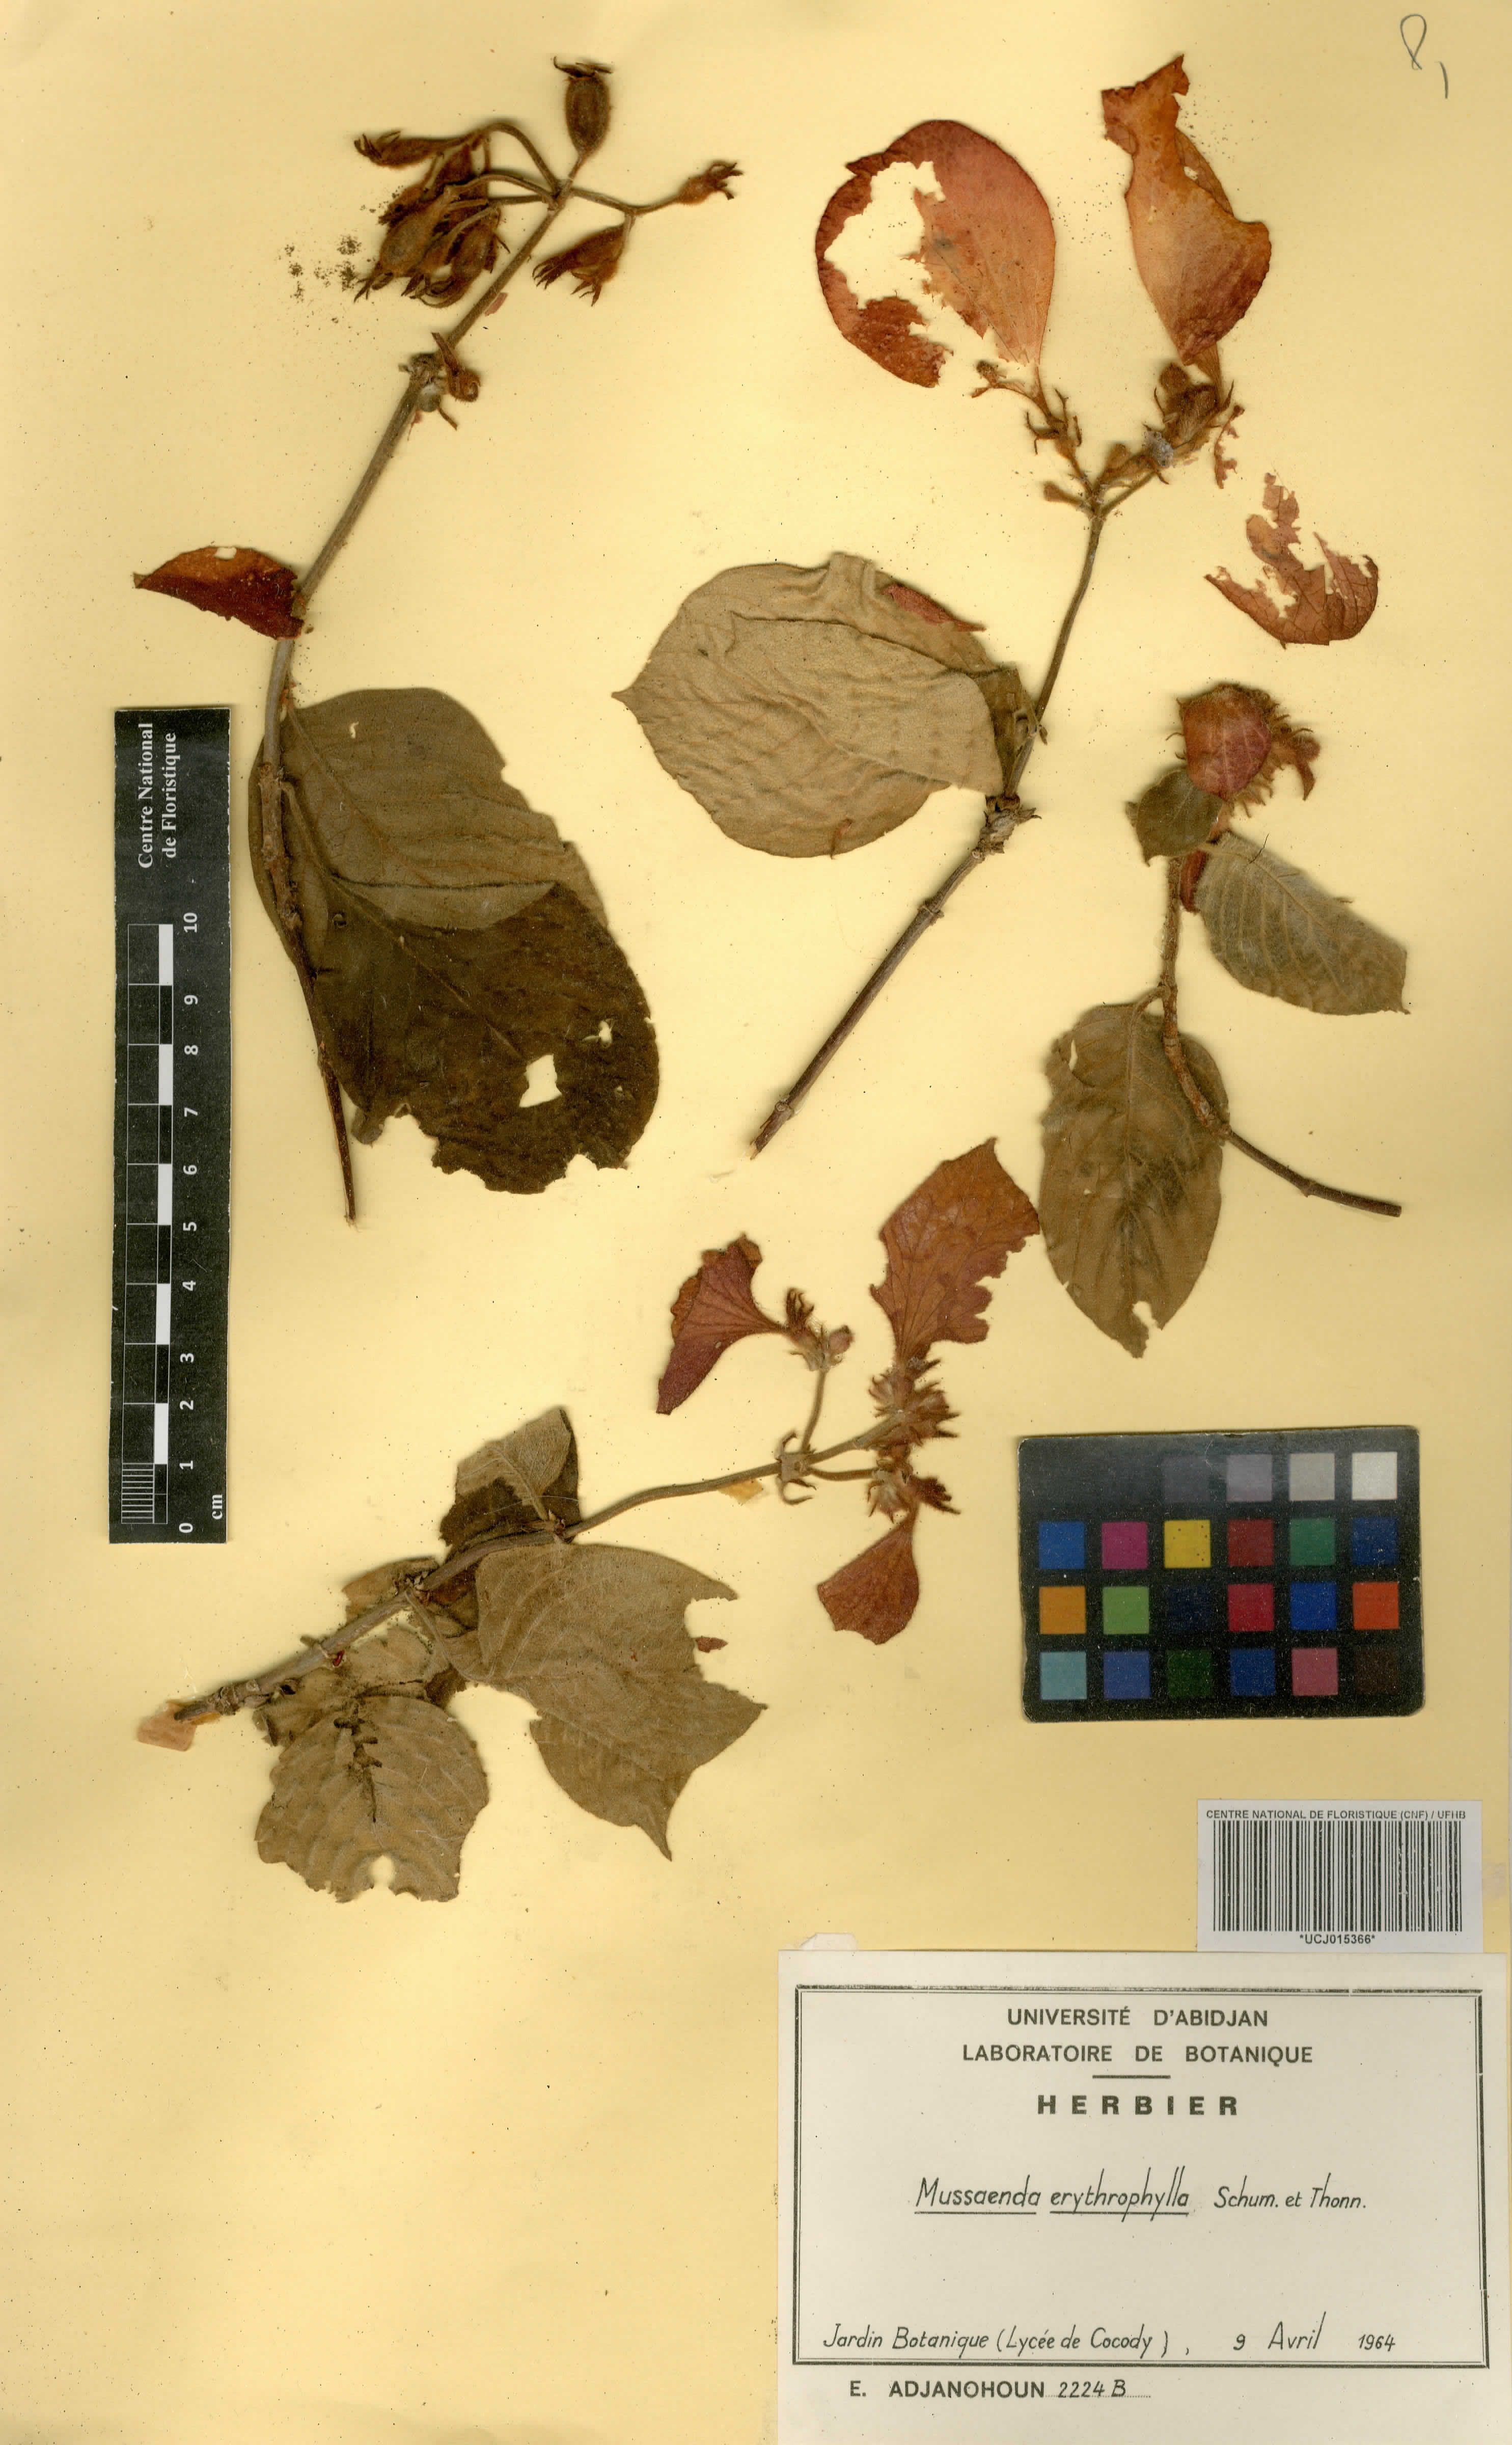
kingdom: Plantae
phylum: Tracheophyta
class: Magnoliopsida
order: Gentianales
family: Rubiaceae
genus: Mussaenda
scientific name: Mussaenda erythrophylla
